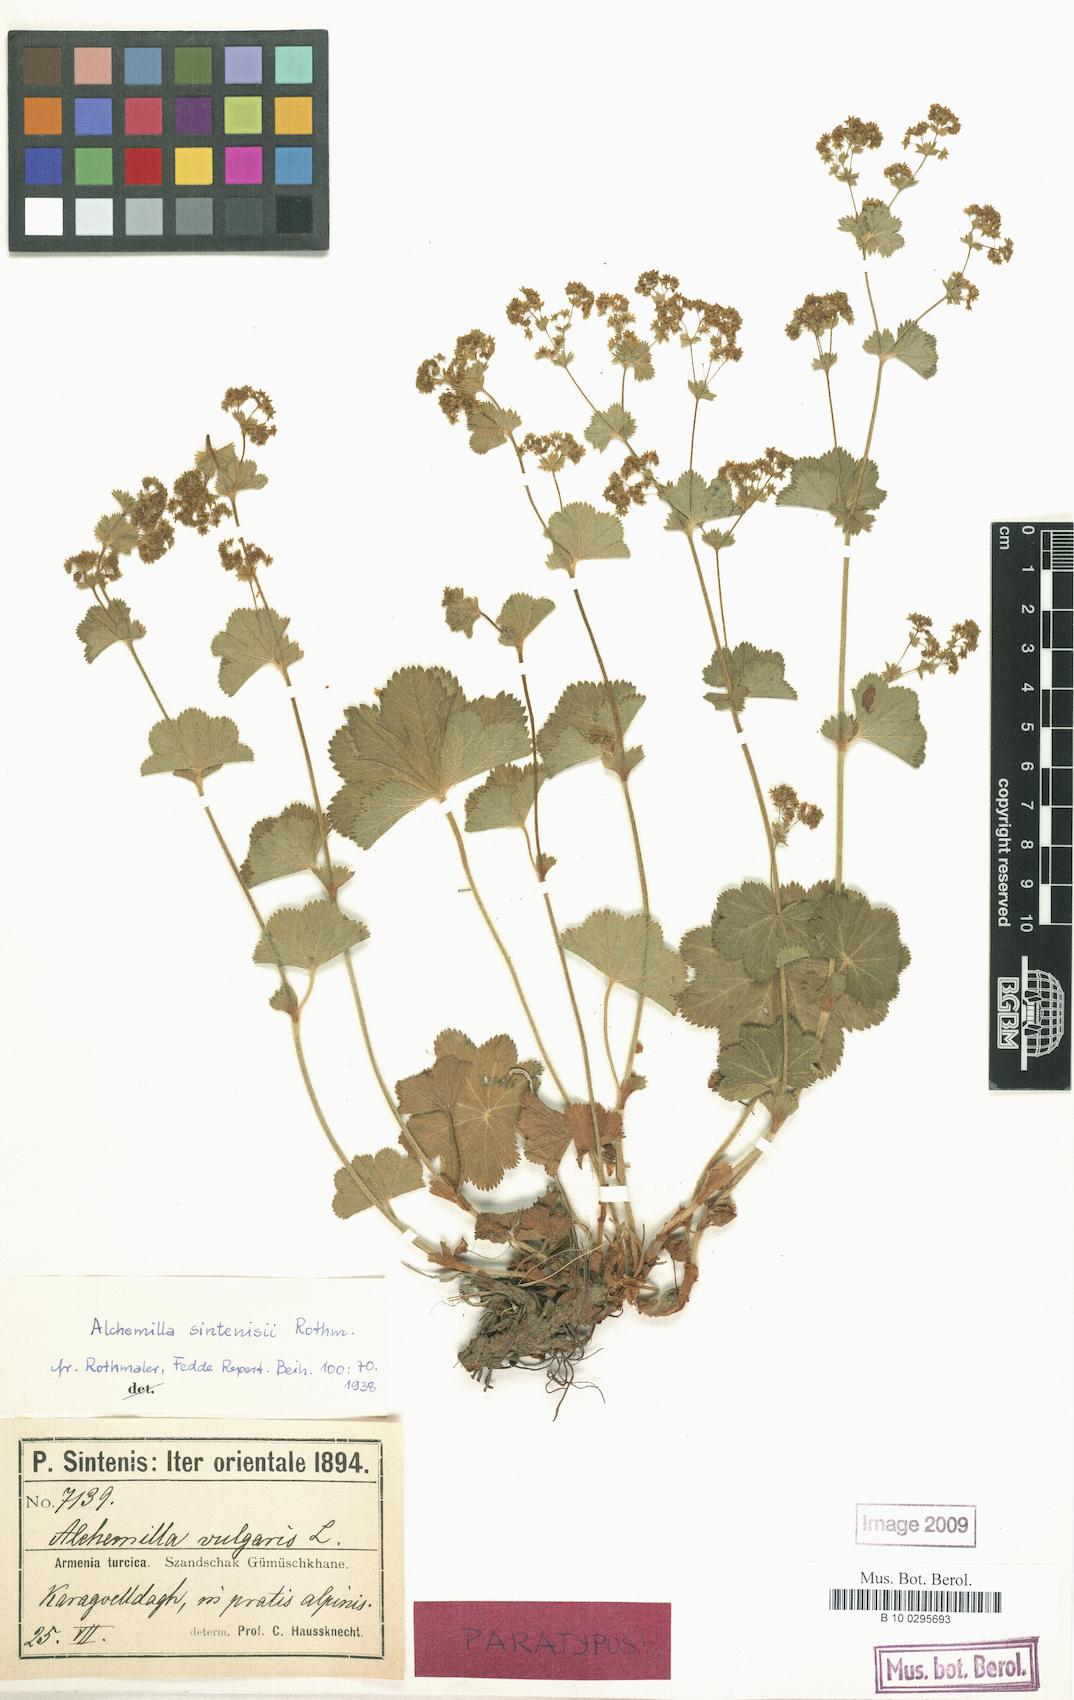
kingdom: Plantae
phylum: Tracheophyta
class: Magnoliopsida
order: Rosales
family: Rosaceae
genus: Alchemilla
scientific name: Alchemilla sintenisii
